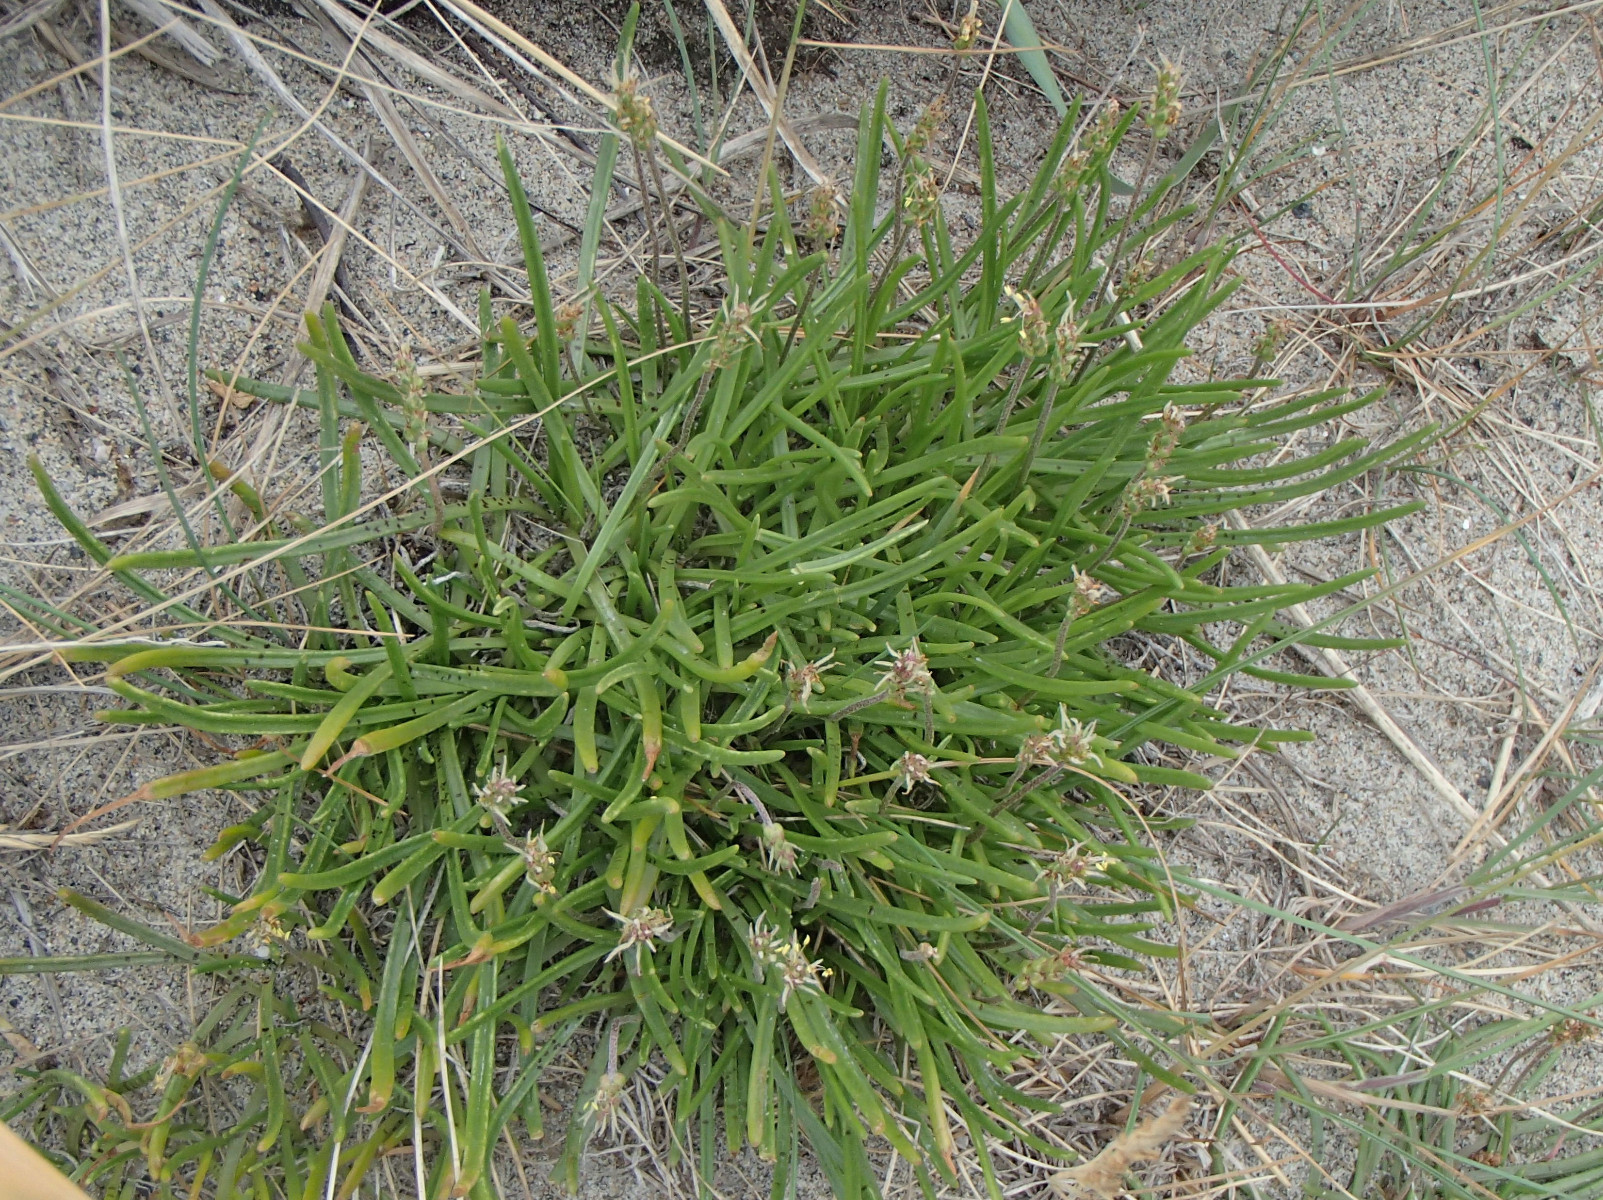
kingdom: Fungi
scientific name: Fungi
